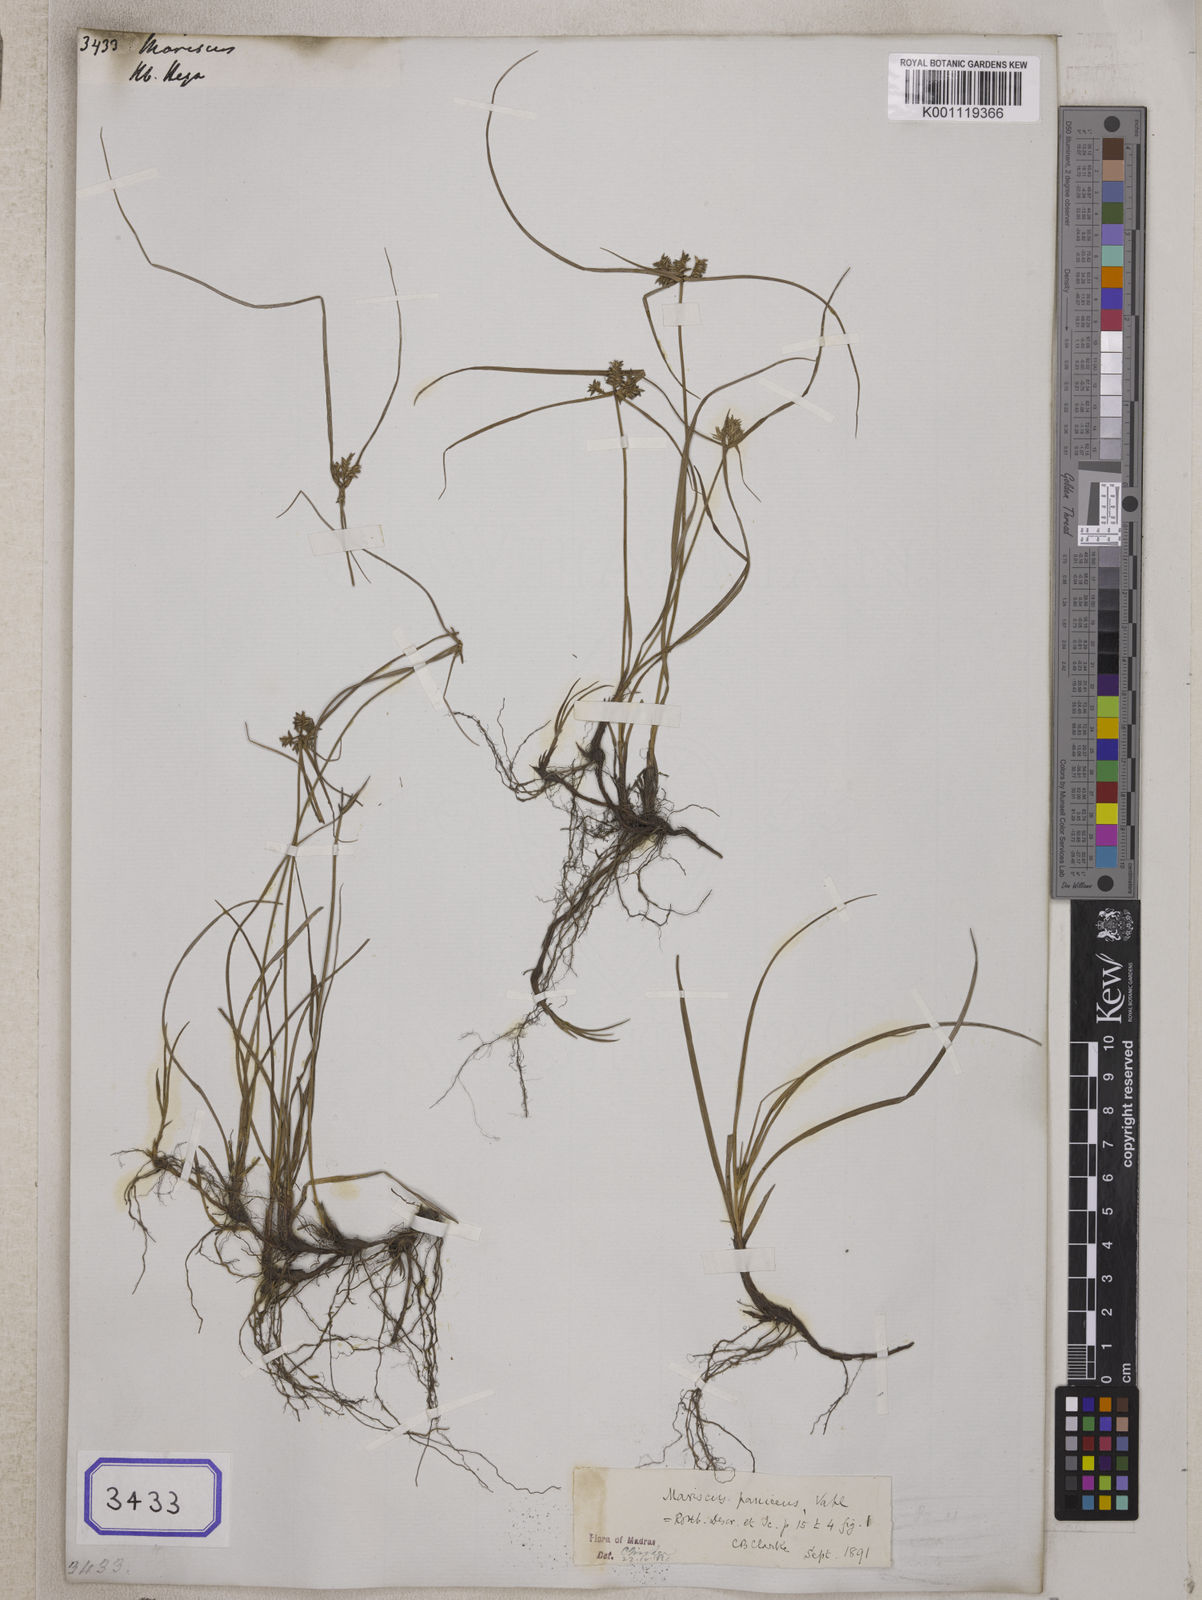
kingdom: Plantae
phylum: Tracheophyta
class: Liliopsida
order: Poales
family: Cyperaceae
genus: Mariscus
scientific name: Mariscus
